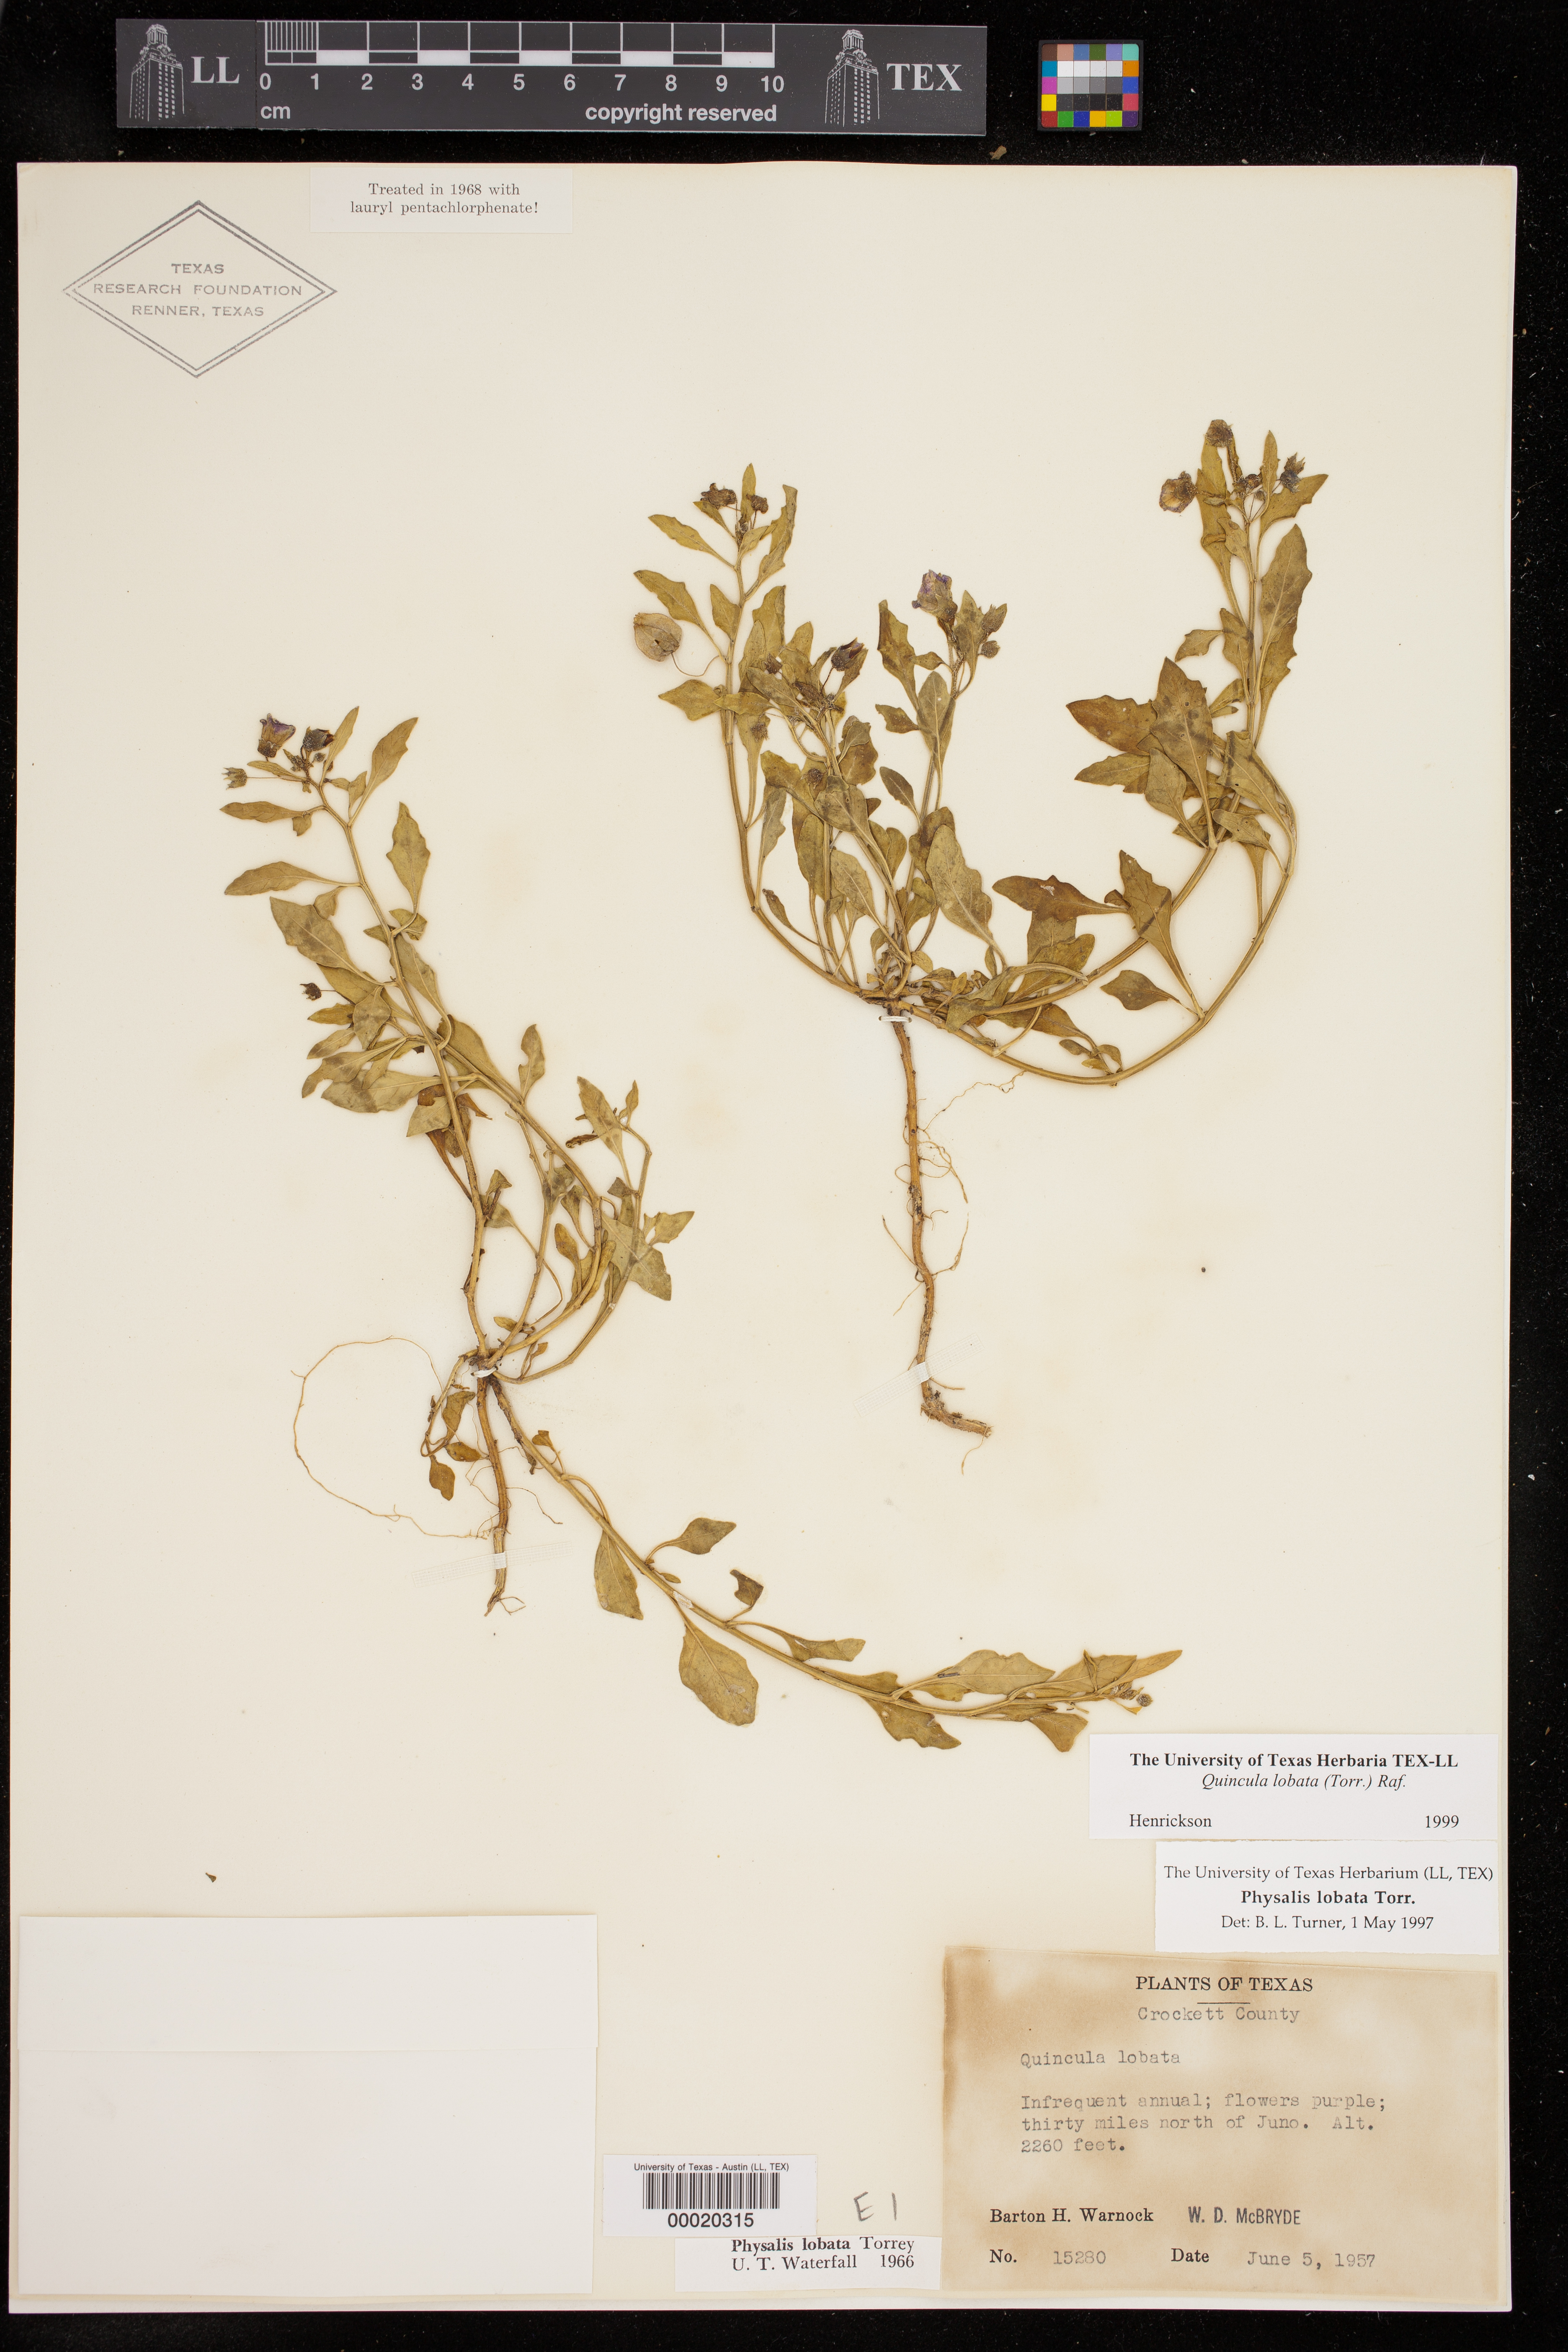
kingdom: Plantae
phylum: Tracheophyta
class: Magnoliopsida
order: Solanales
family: Solanaceae
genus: Quincula
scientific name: Quincula lobata
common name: Purple-ground-cherry
